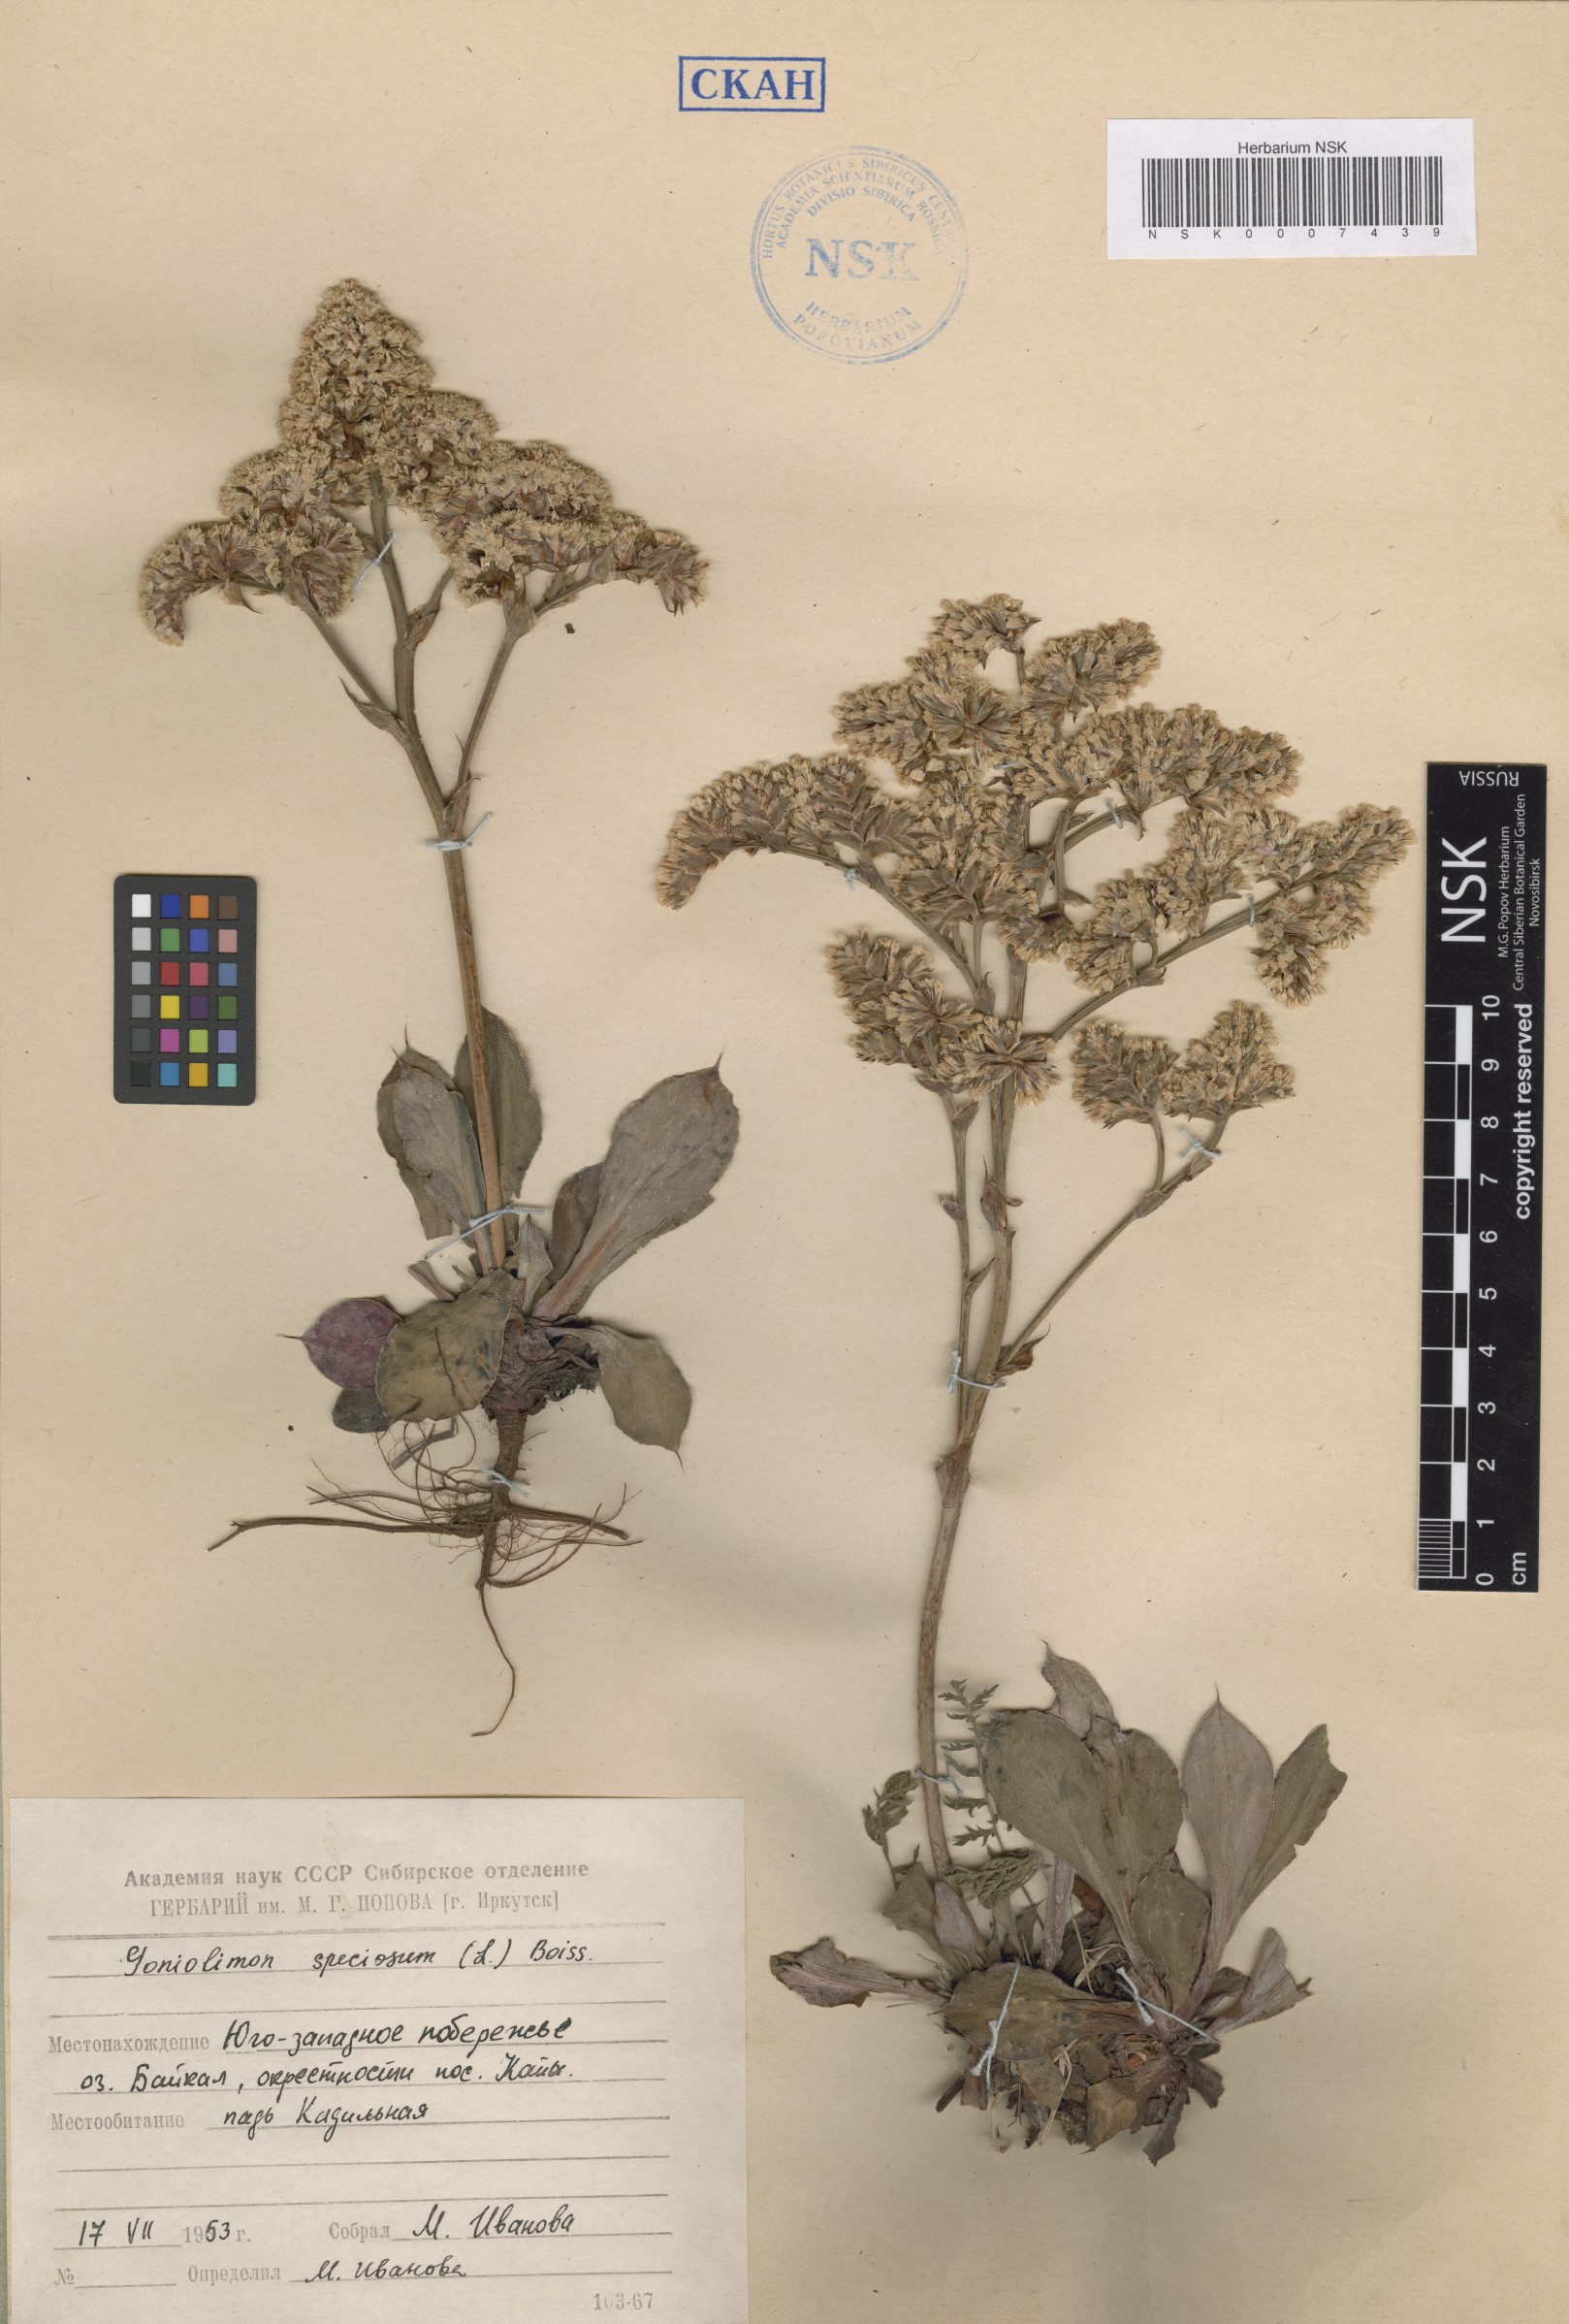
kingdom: Plantae
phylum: Tracheophyta
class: Magnoliopsida
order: Caryophyllales
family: Plumbaginaceae
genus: Goniolimon
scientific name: Goniolimon speciosum
